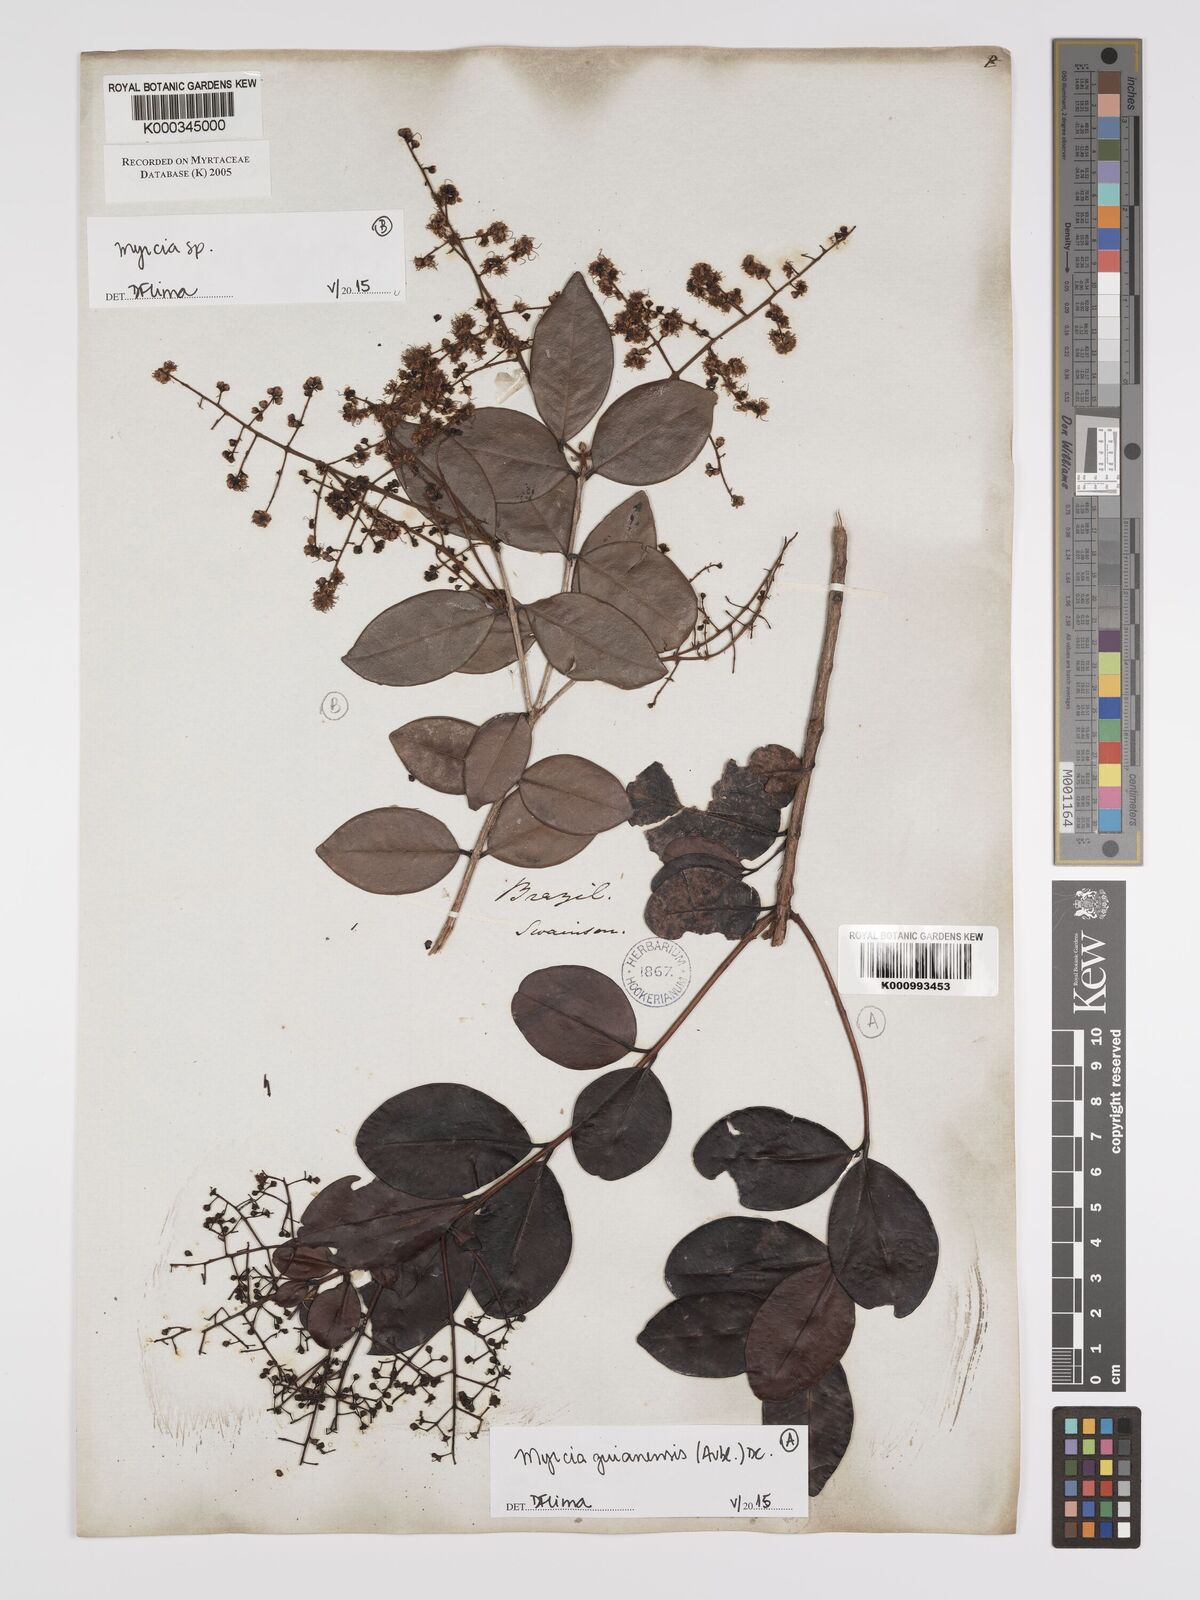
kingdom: Plantae
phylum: Tracheophyta
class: Magnoliopsida
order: Myrtales
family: Myrtaceae
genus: Myrcia
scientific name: Myrcia guianensis
